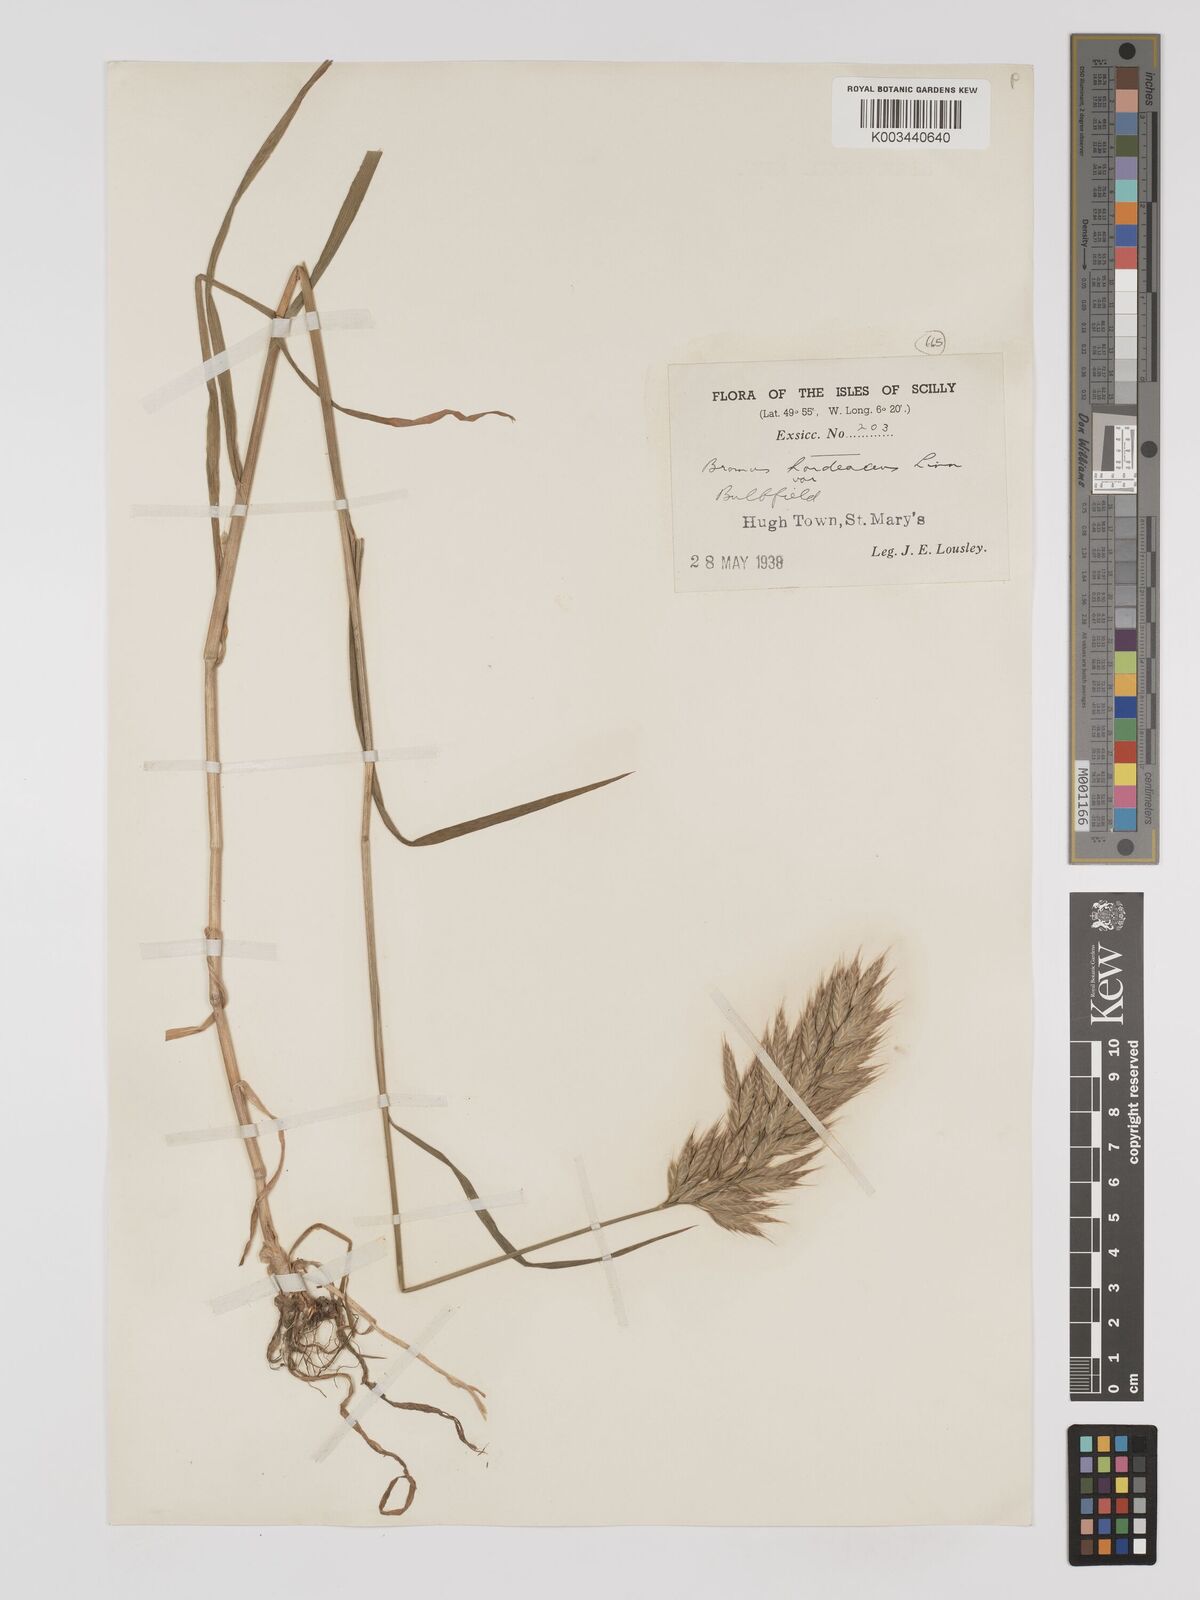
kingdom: Plantae
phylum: Tracheophyta
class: Liliopsida
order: Poales
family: Poaceae
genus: Bromus
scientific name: Bromus hordeaceus
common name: Soft brome
